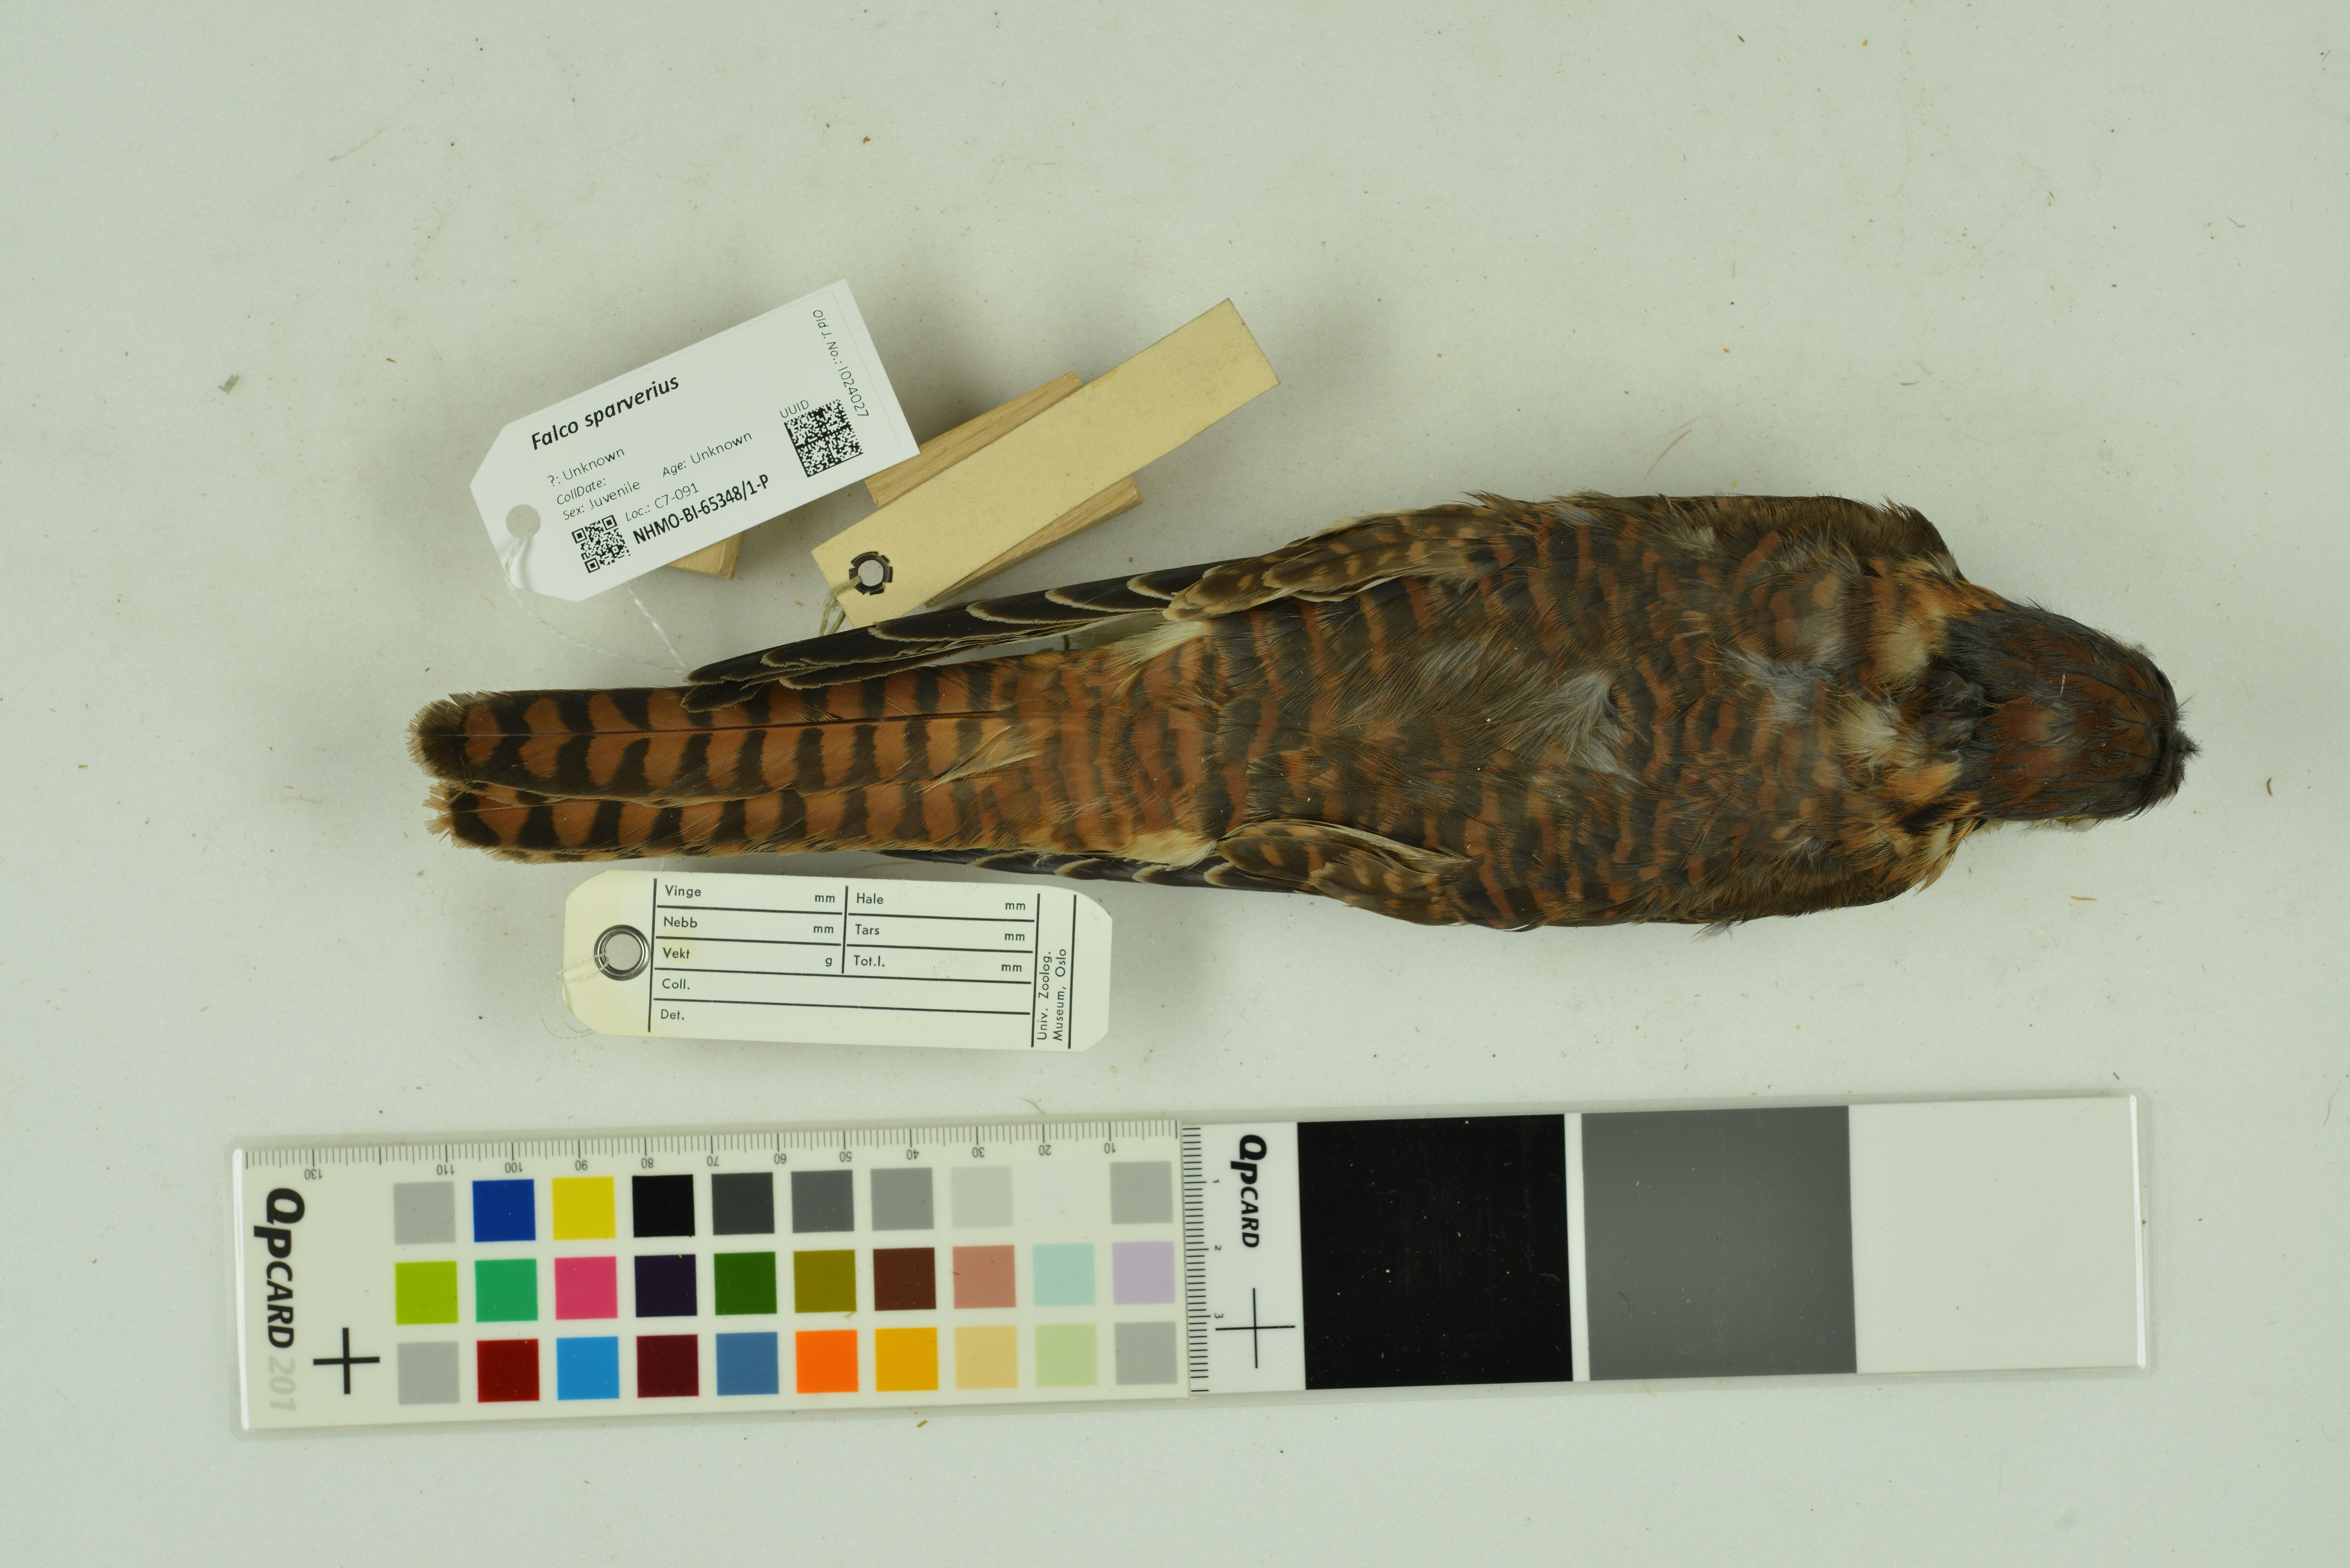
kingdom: Animalia
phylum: Chordata
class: Aves
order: Falconiformes
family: Falconidae
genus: Falco
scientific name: Falco sparverius
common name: American kestrel
